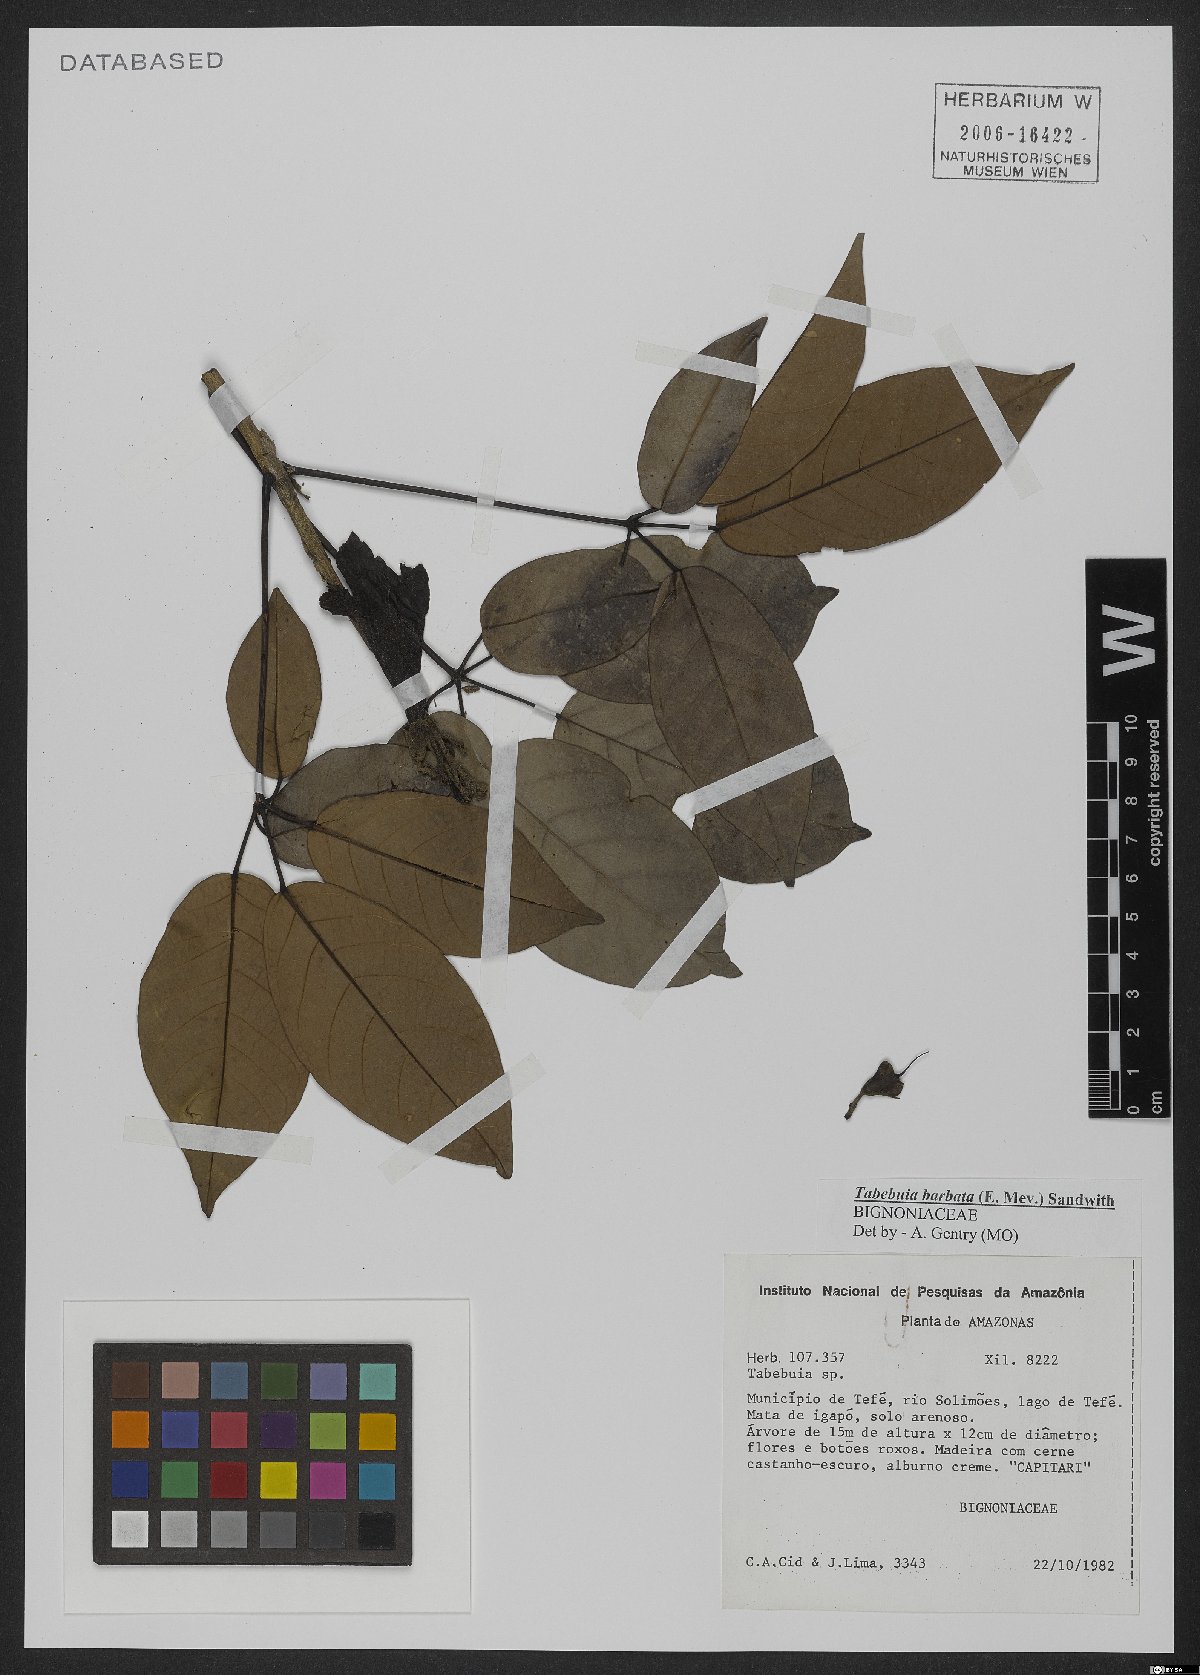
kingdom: Plantae
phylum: Tracheophyta
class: Magnoliopsida
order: Lamiales
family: Bignoniaceae
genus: Handroanthus
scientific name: Handroanthus barbatus
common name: Trumpet trees
